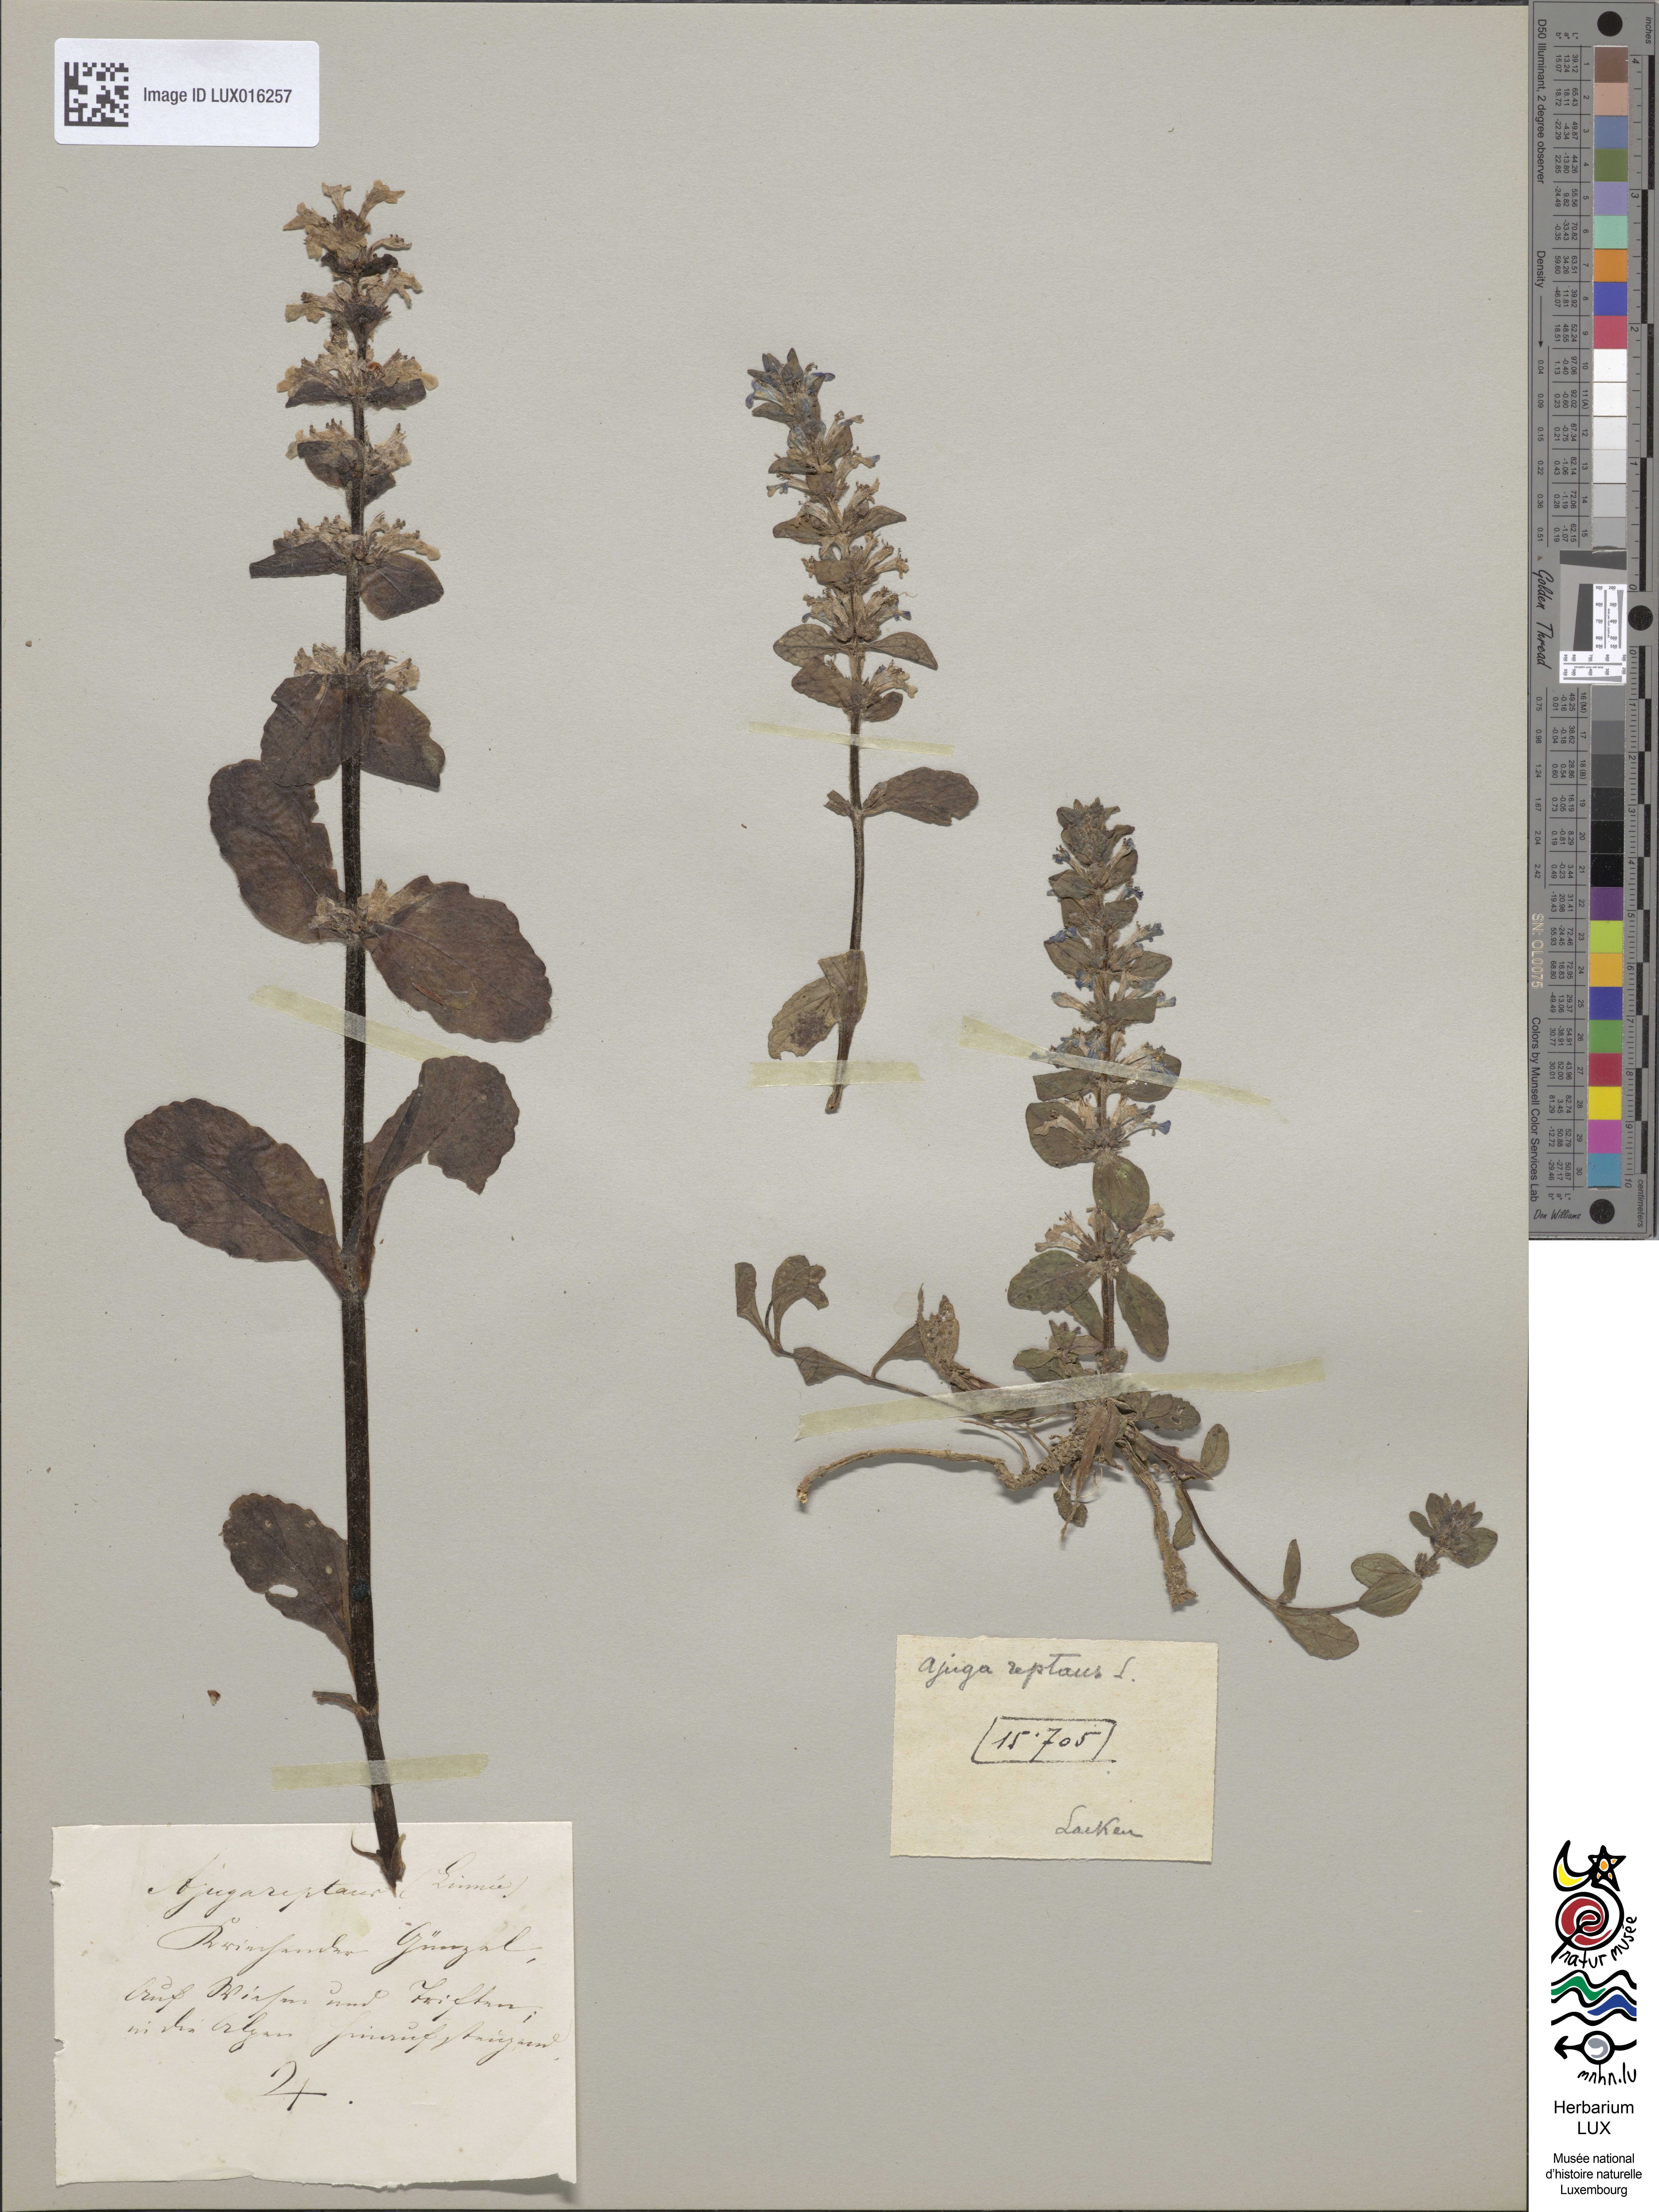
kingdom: Plantae
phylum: Tracheophyta
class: Magnoliopsida
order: Lamiales
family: Lamiaceae
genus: Ajuga
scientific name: Ajuga reptans
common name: Bugle
